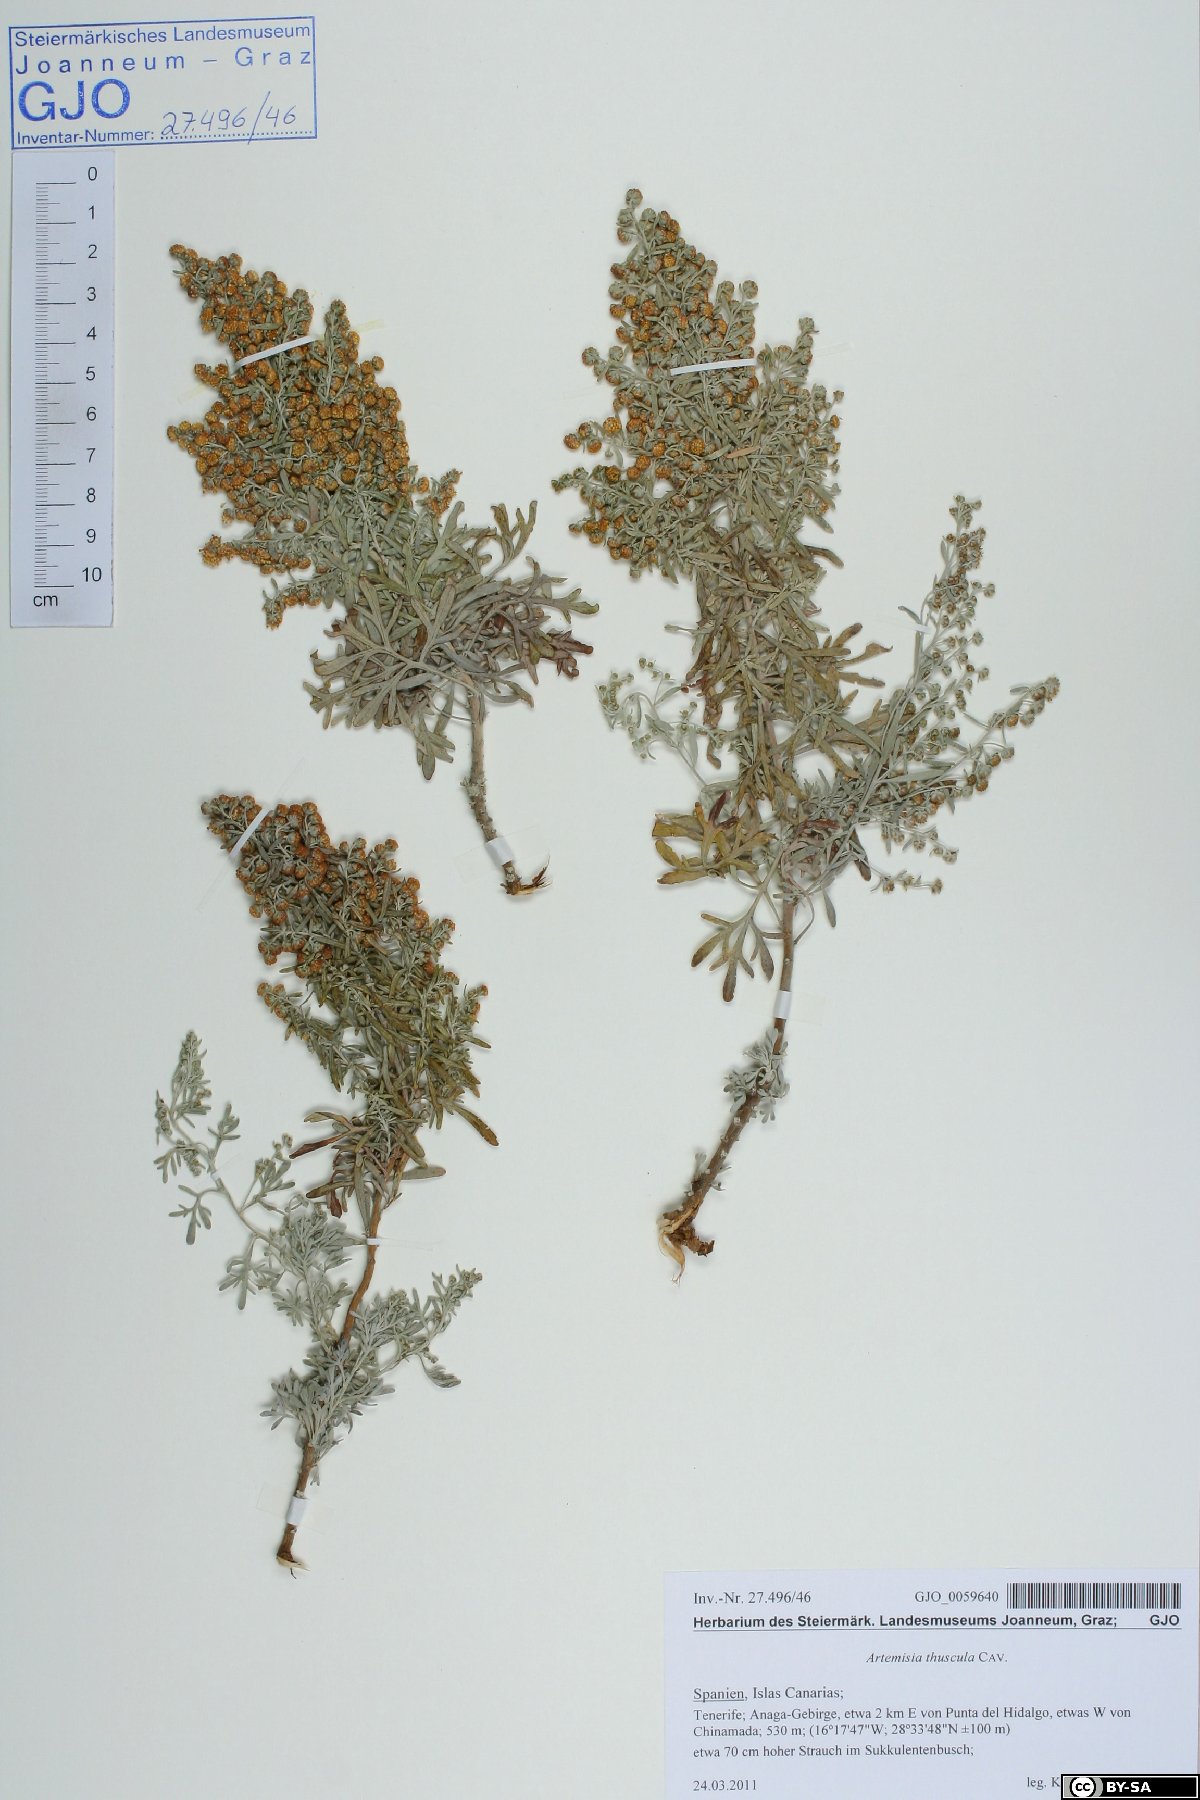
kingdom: Plantae
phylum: Tracheophyta
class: Magnoliopsida
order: Asterales
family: Asteraceae
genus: Artemisia
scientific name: Artemisia thuscula
